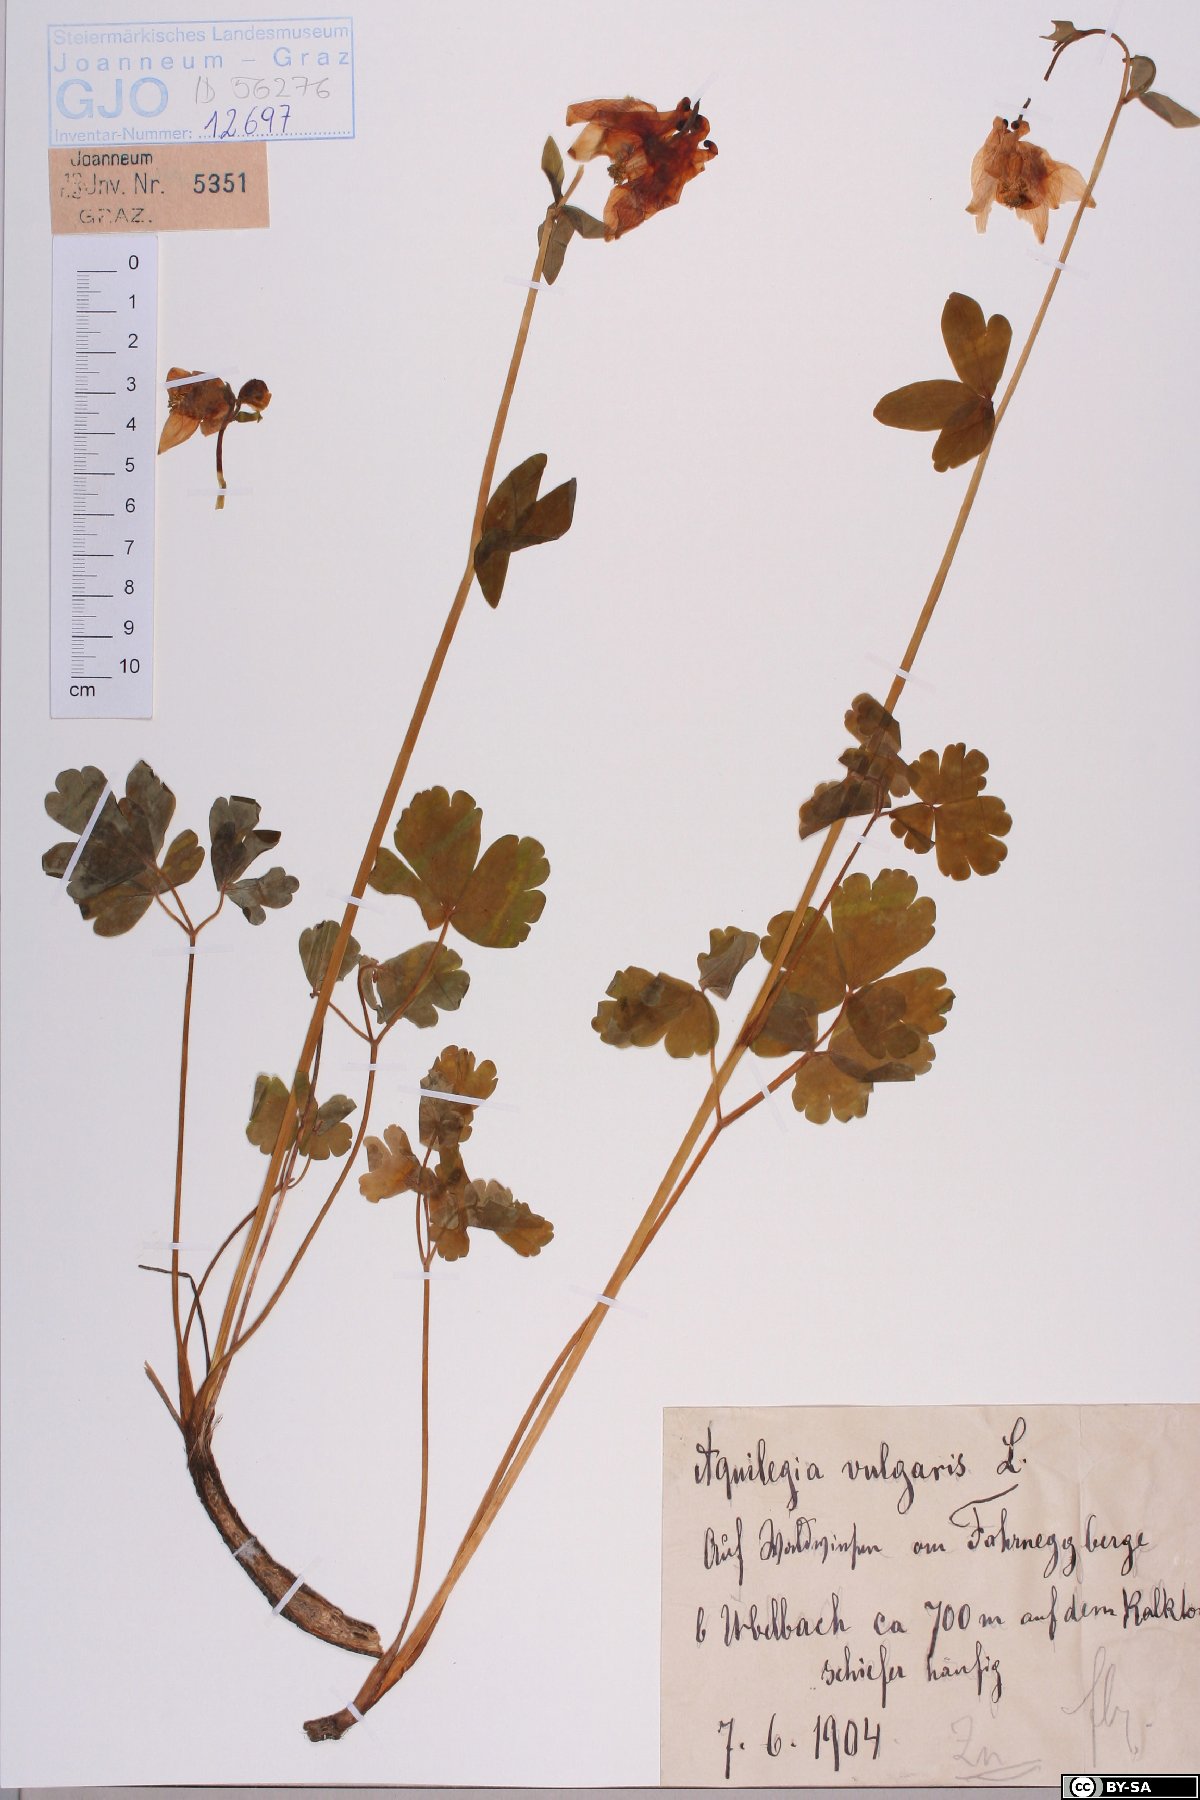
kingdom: Plantae
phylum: Tracheophyta
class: Magnoliopsida
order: Ranunculales
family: Ranunculaceae
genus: Aquilegia
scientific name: Aquilegia vulgaris
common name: Columbine
